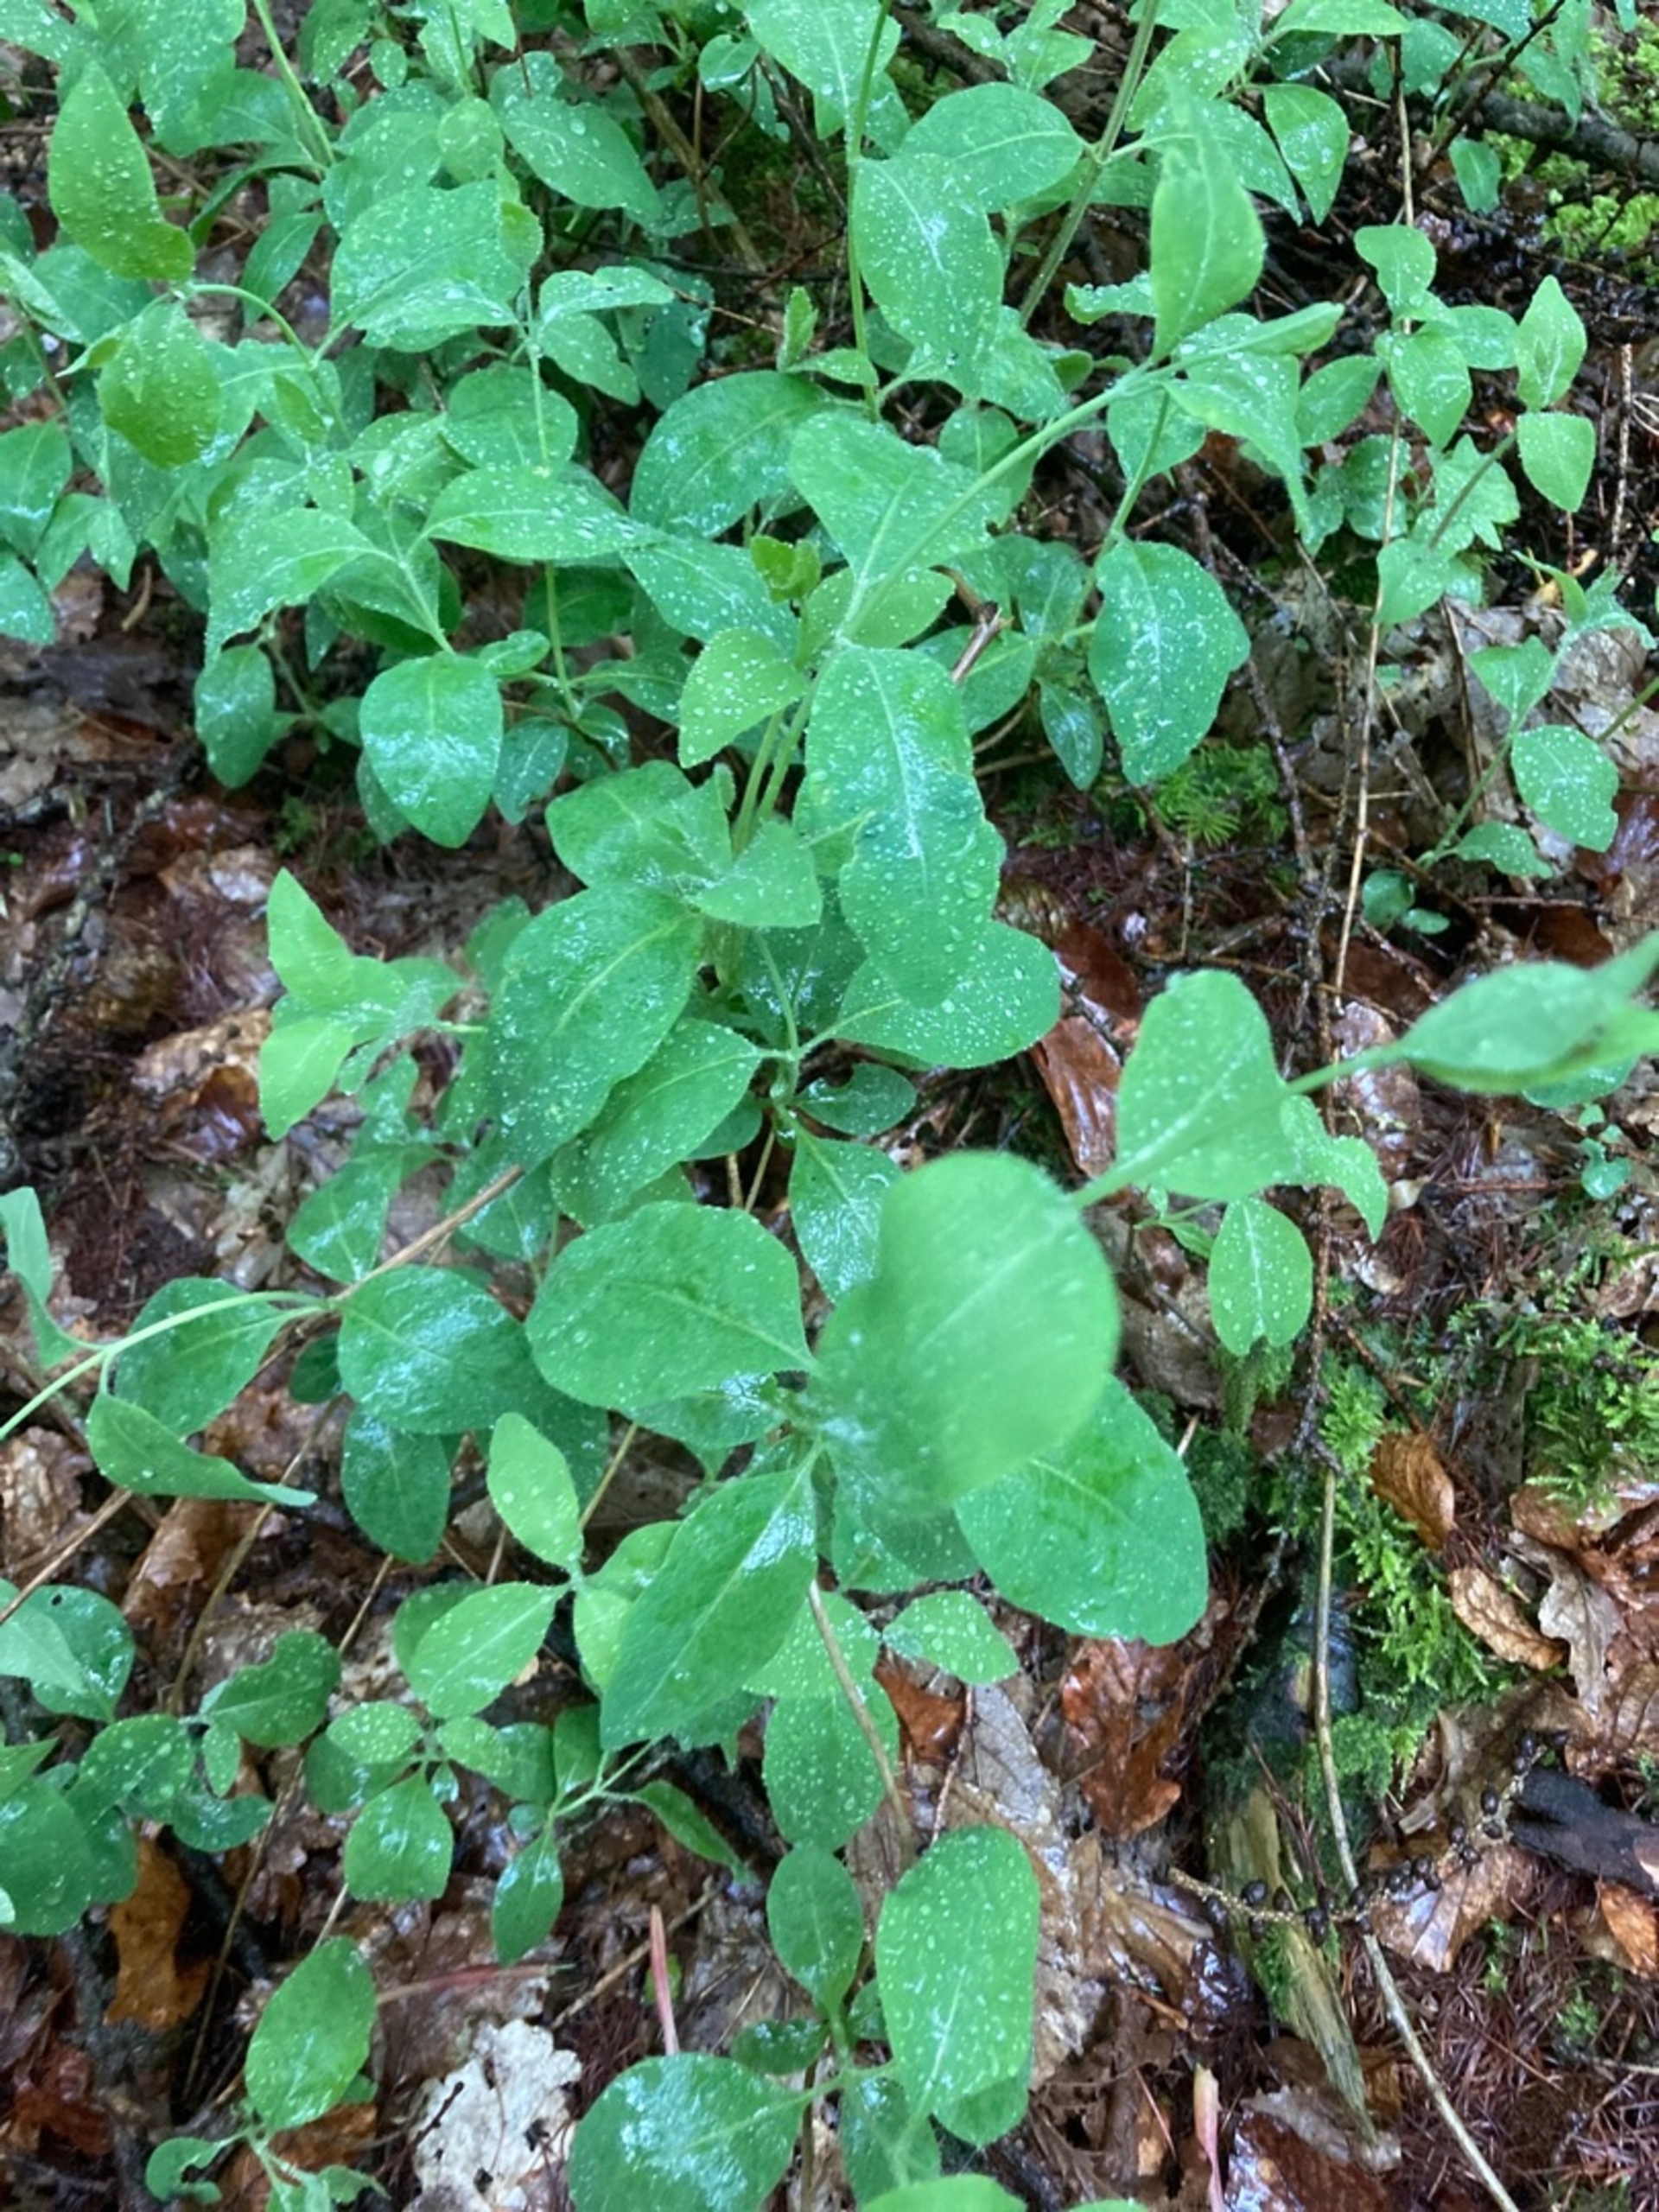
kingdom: Plantae
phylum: Tracheophyta
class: Magnoliopsida
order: Dipsacales
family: Caprifoliaceae
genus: Lonicera
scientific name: Lonicera periclymenum
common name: Almindelig gedeblad
